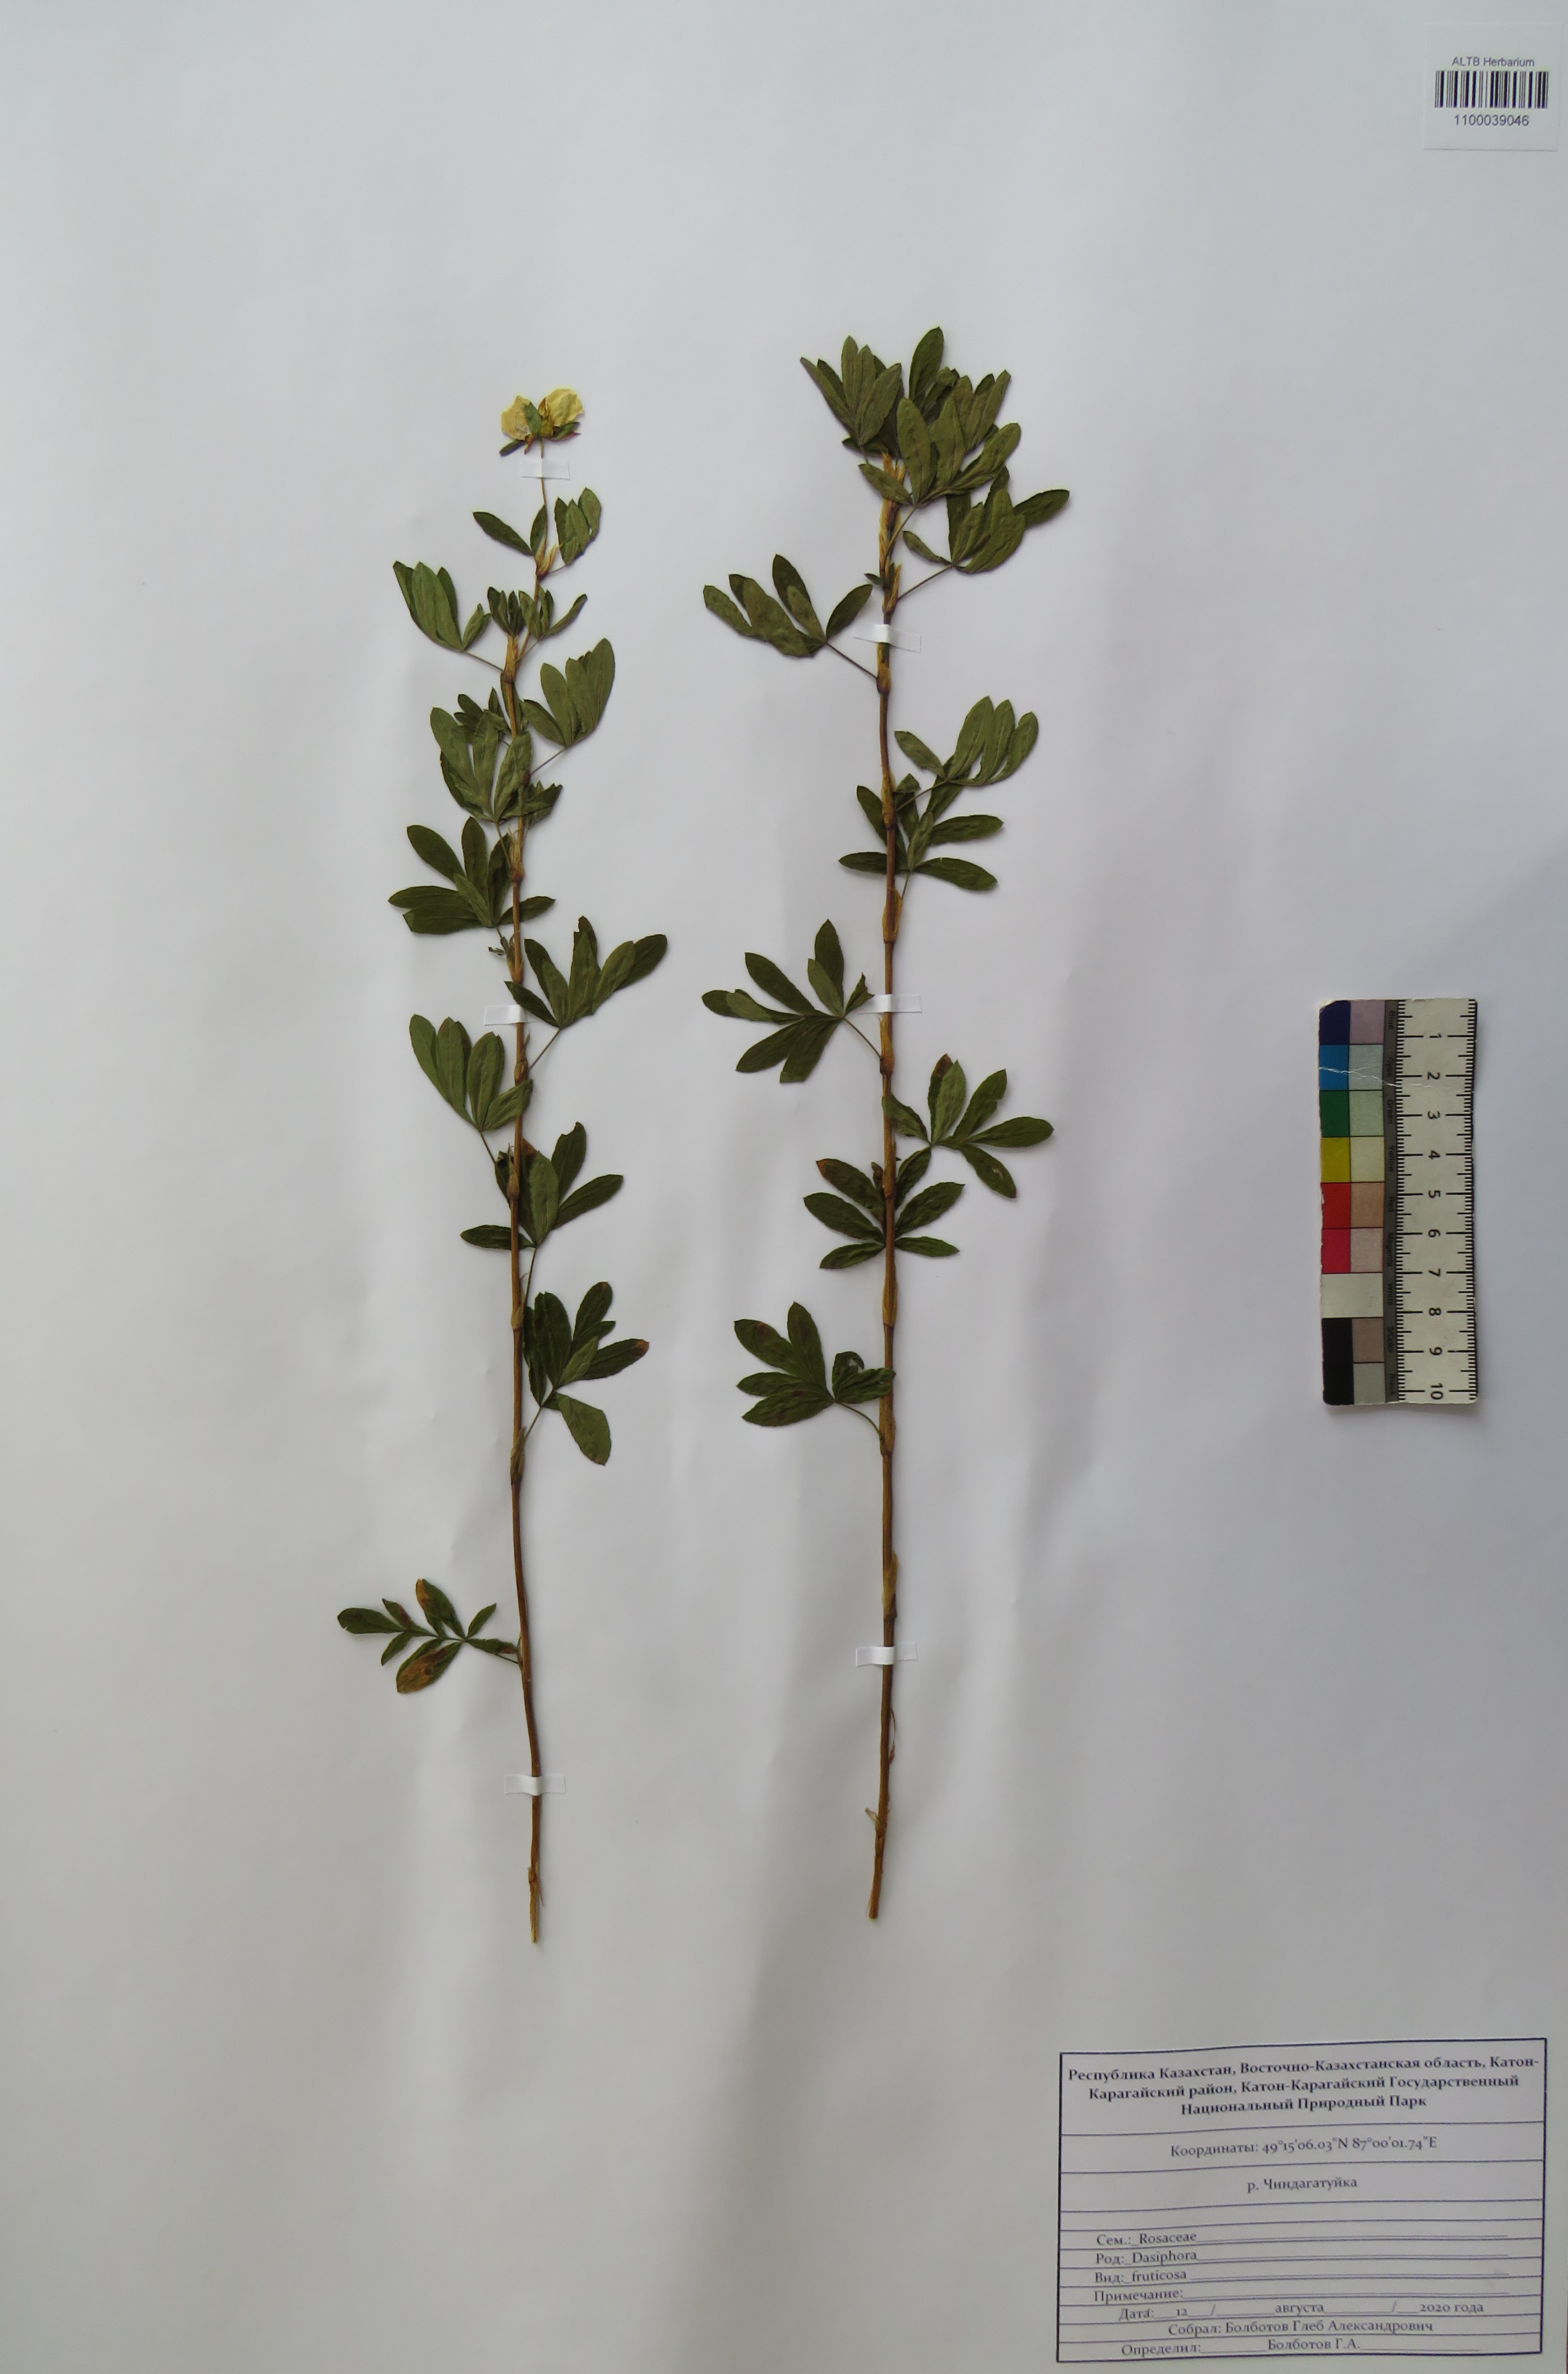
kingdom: Plantae
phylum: Tracheophyta
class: Magnoliopsida
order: Rosales
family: Rosaceae
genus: Dasiphora
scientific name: Dasiphora fruticosa
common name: Shrubby cinquefoil
